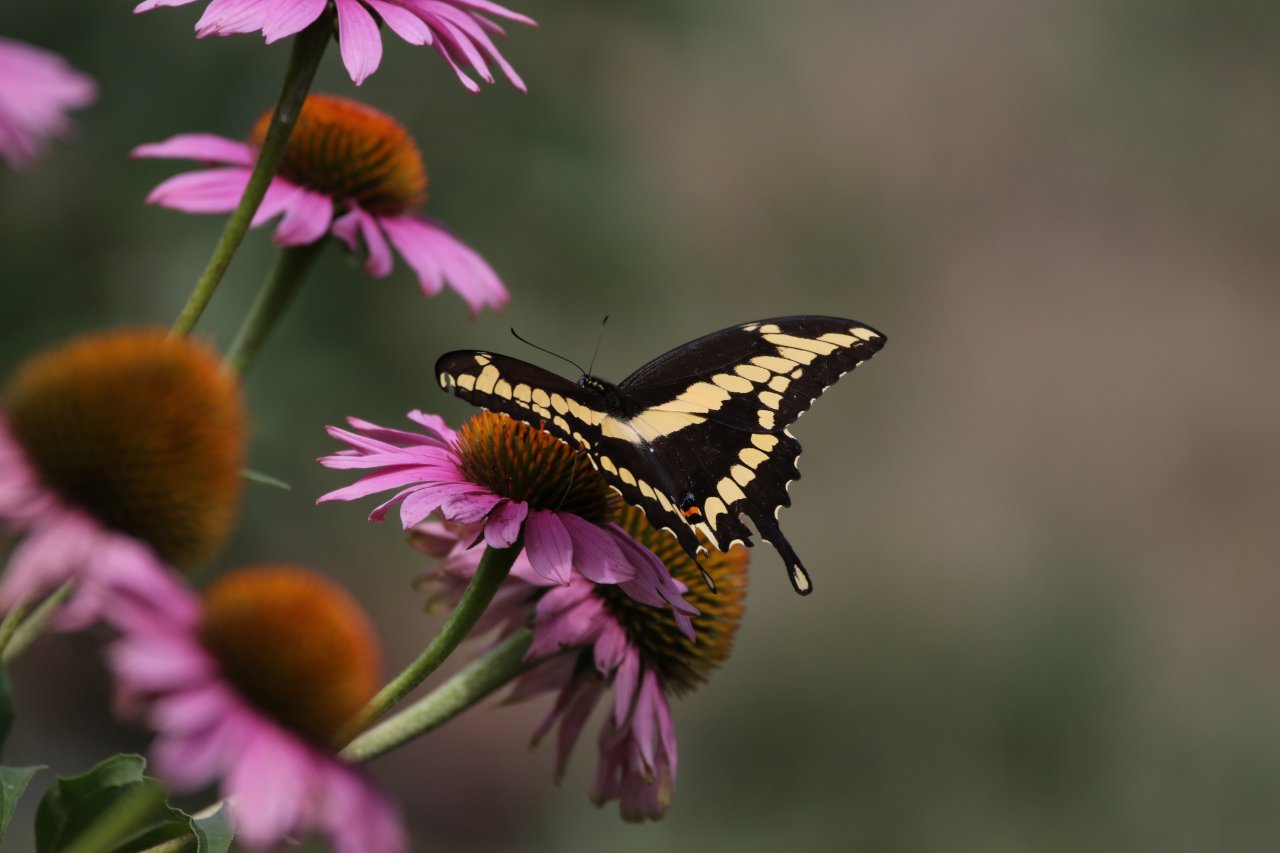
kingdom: Animalia
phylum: Arthropoda
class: Insecta
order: Lepidoptera
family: Papilionidae
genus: Papilio
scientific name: Papilio cresphontes
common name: Eastern Giant Swallowtail
